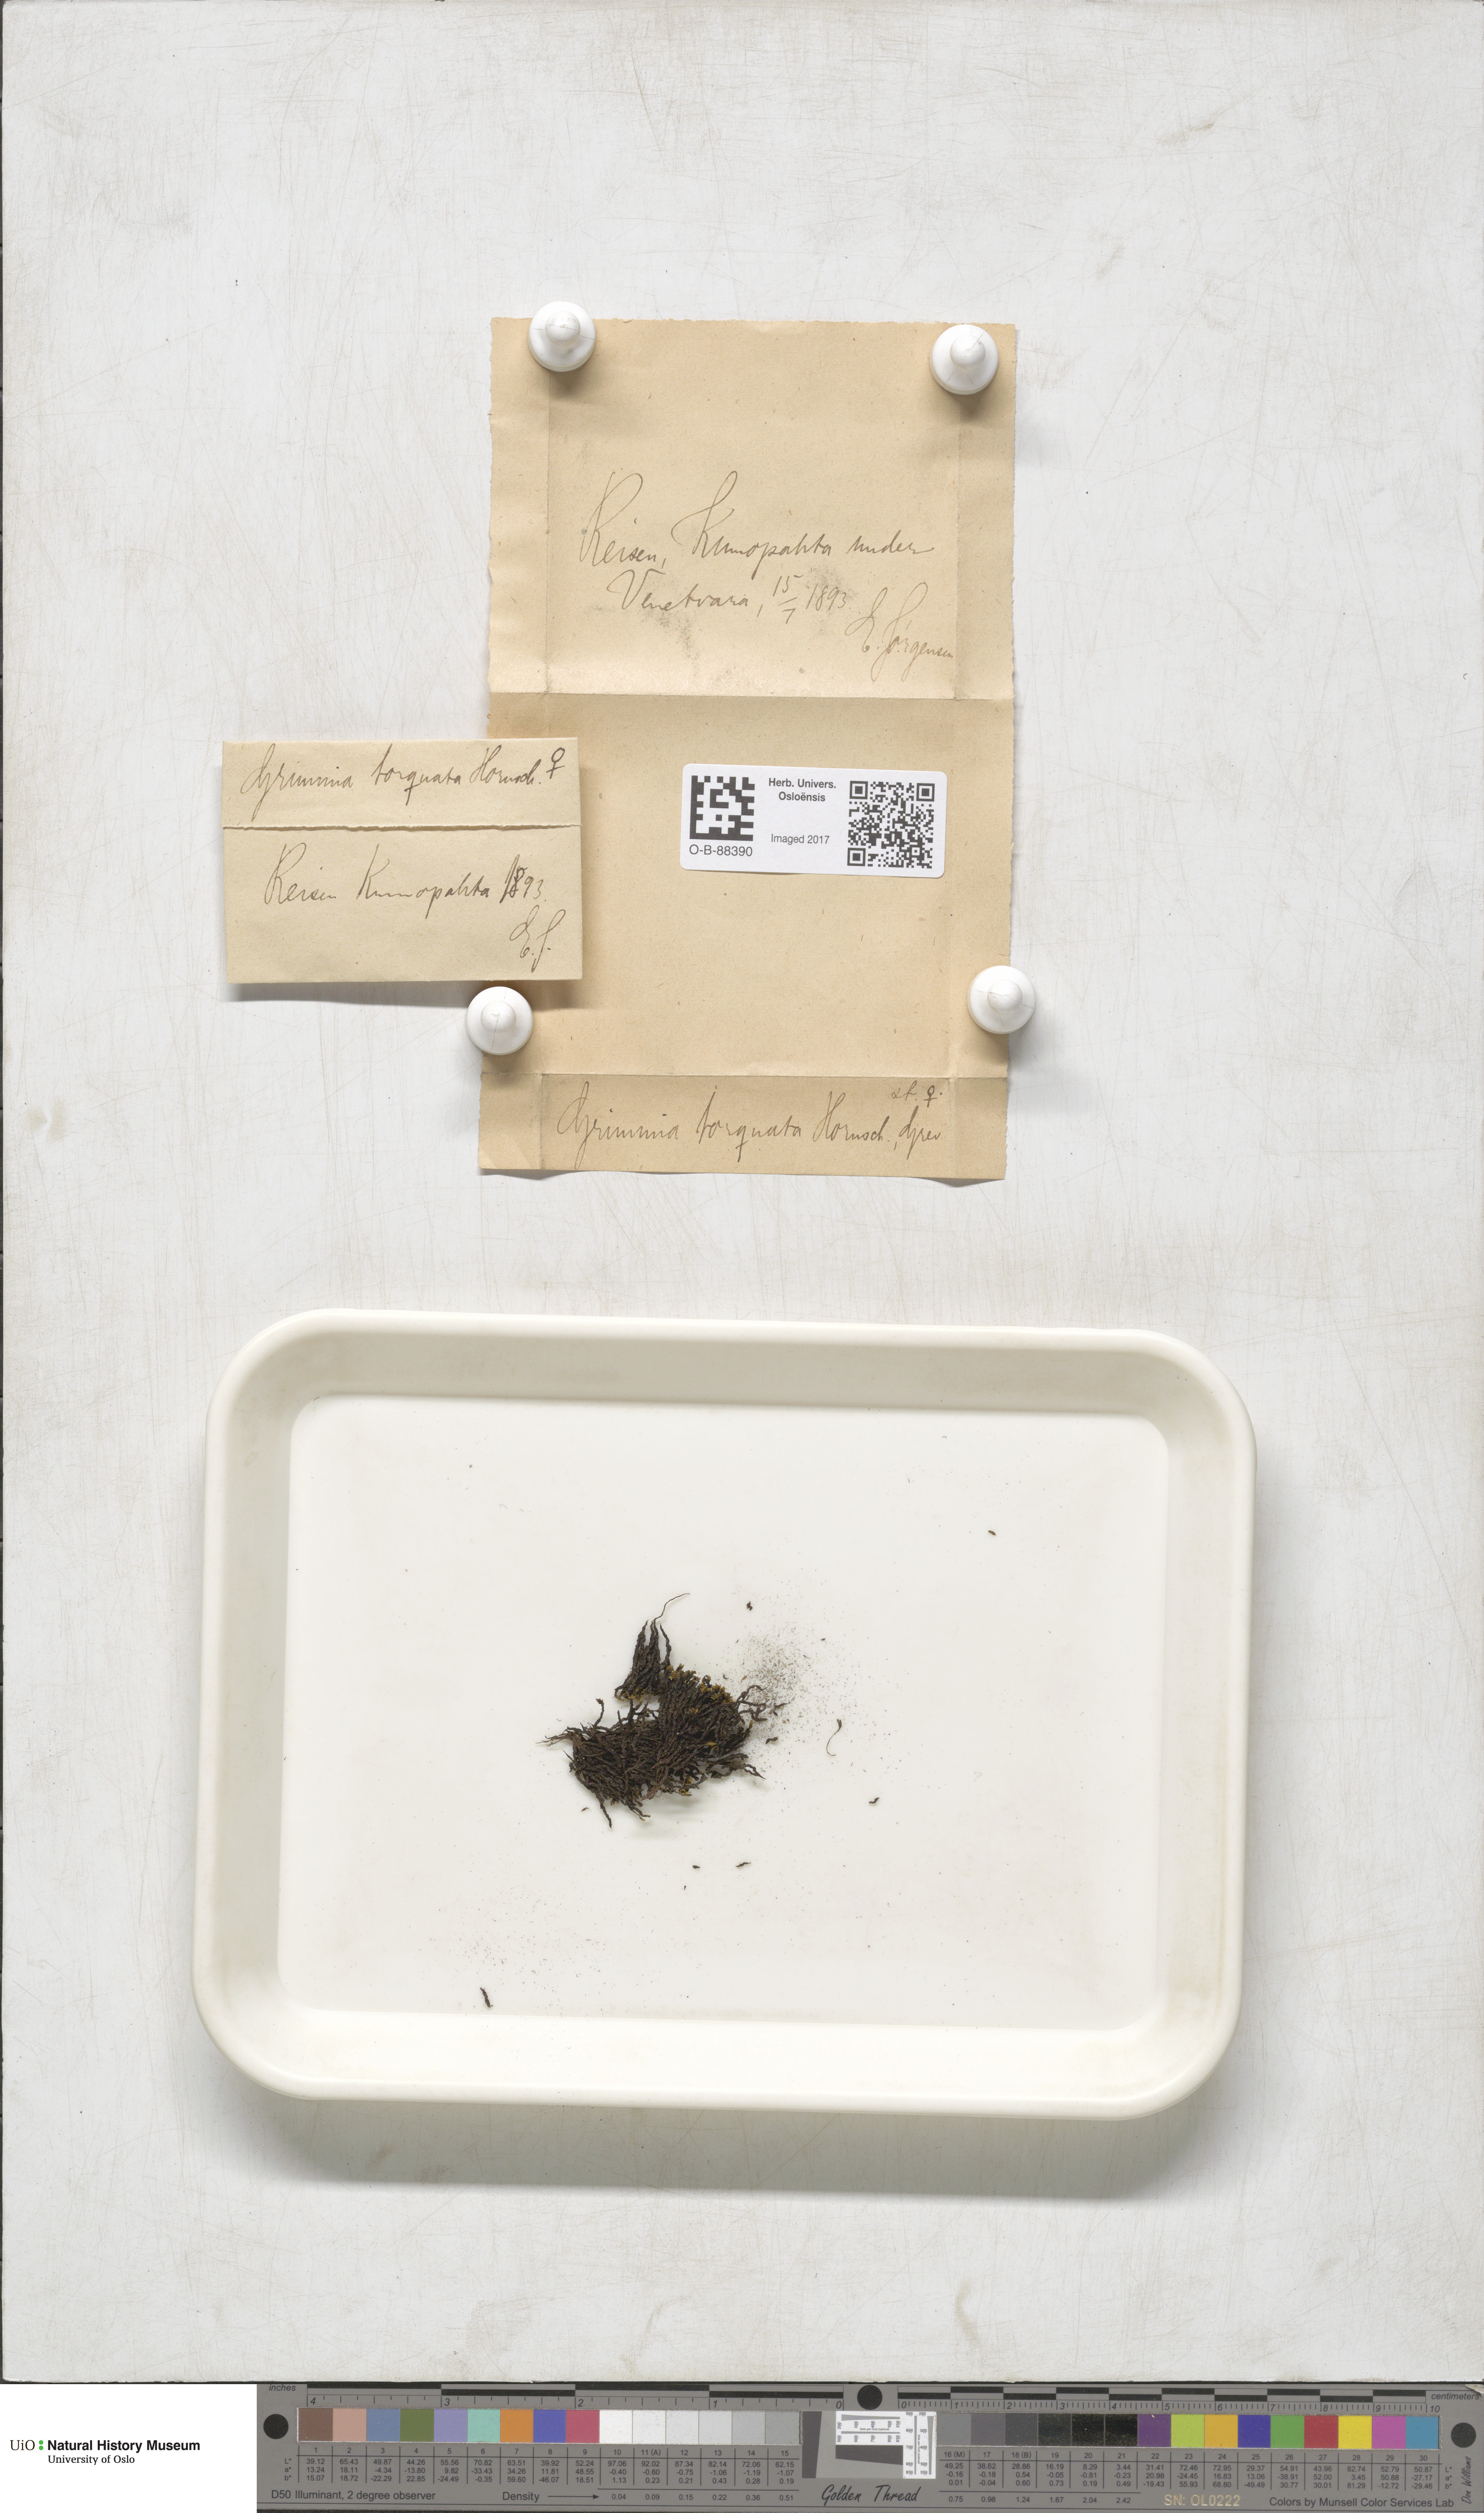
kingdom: Plantae
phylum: Bryophyta
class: Bryopsida
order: Grimmiales
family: Grimmiaceae
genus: Grimmia
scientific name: Grimmia torquata
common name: Twisted grimmia
